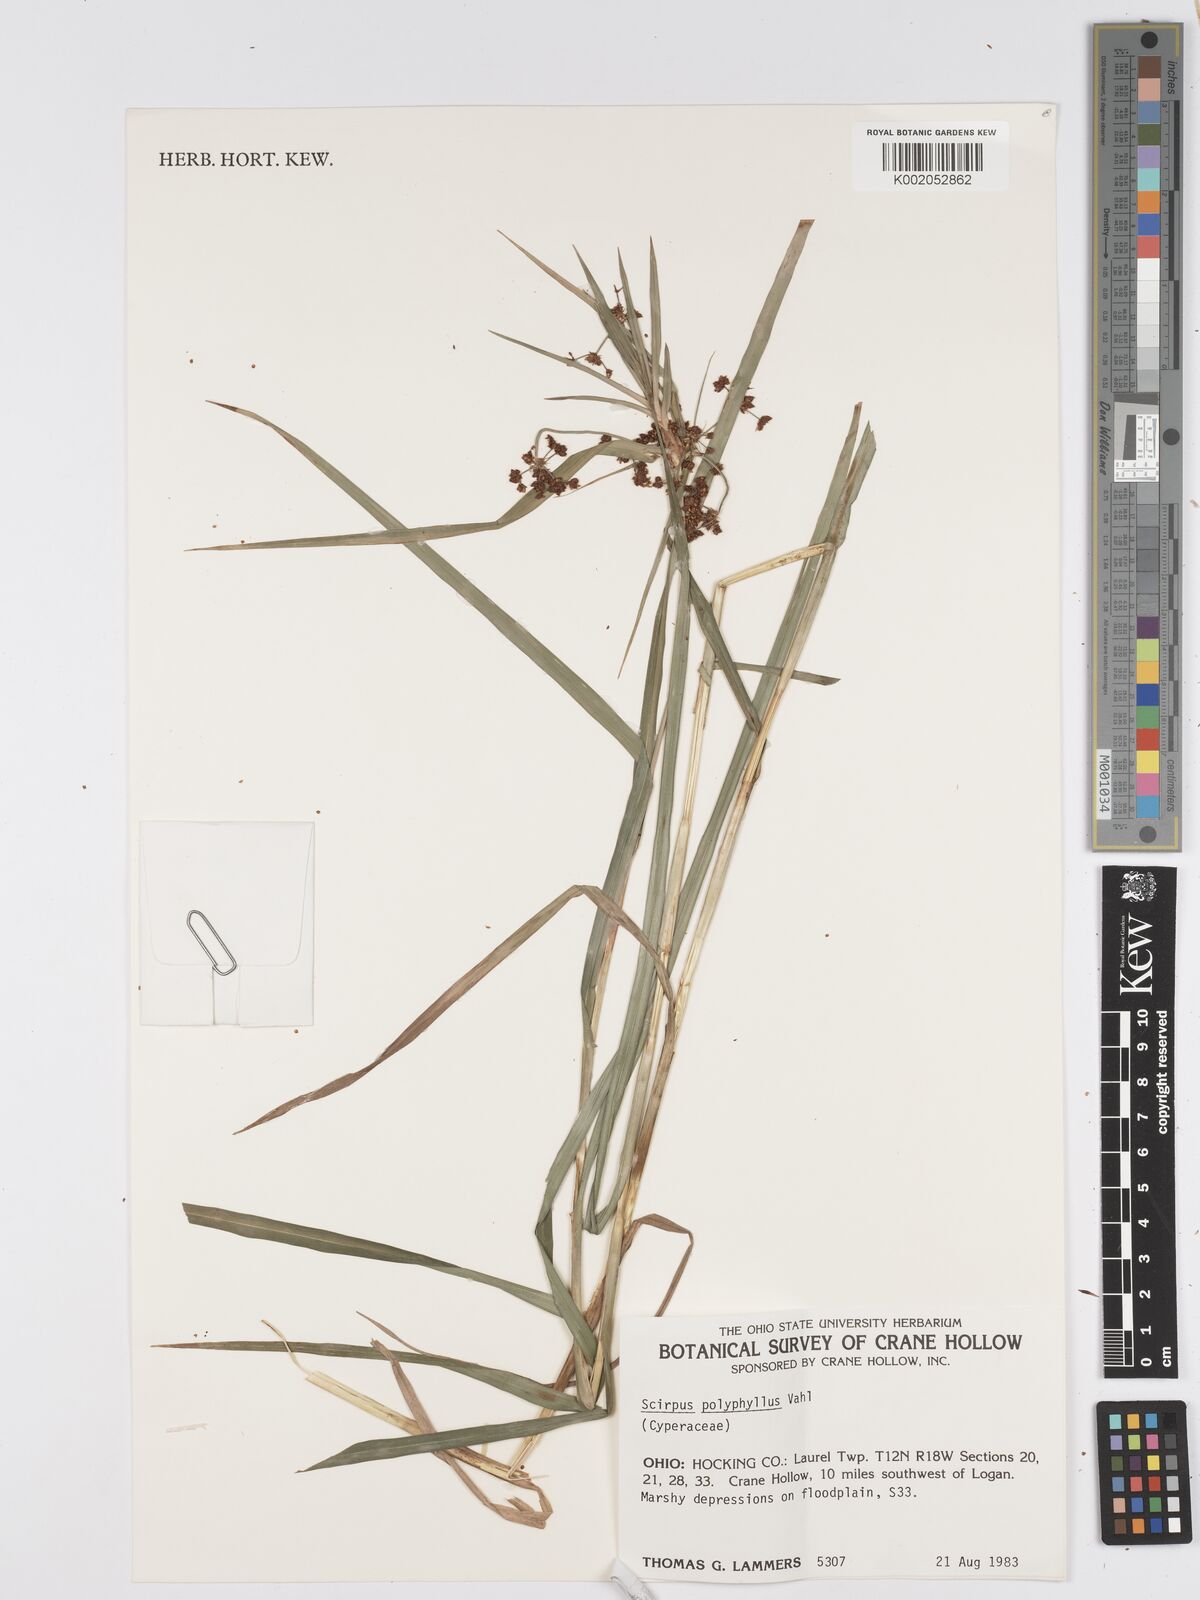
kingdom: Plantae
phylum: Tracheophyta
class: Liliopsida
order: Poales
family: Cyperaceae
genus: Scirpus
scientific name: Scirpus polyphyllus
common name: Leafy bulrush
